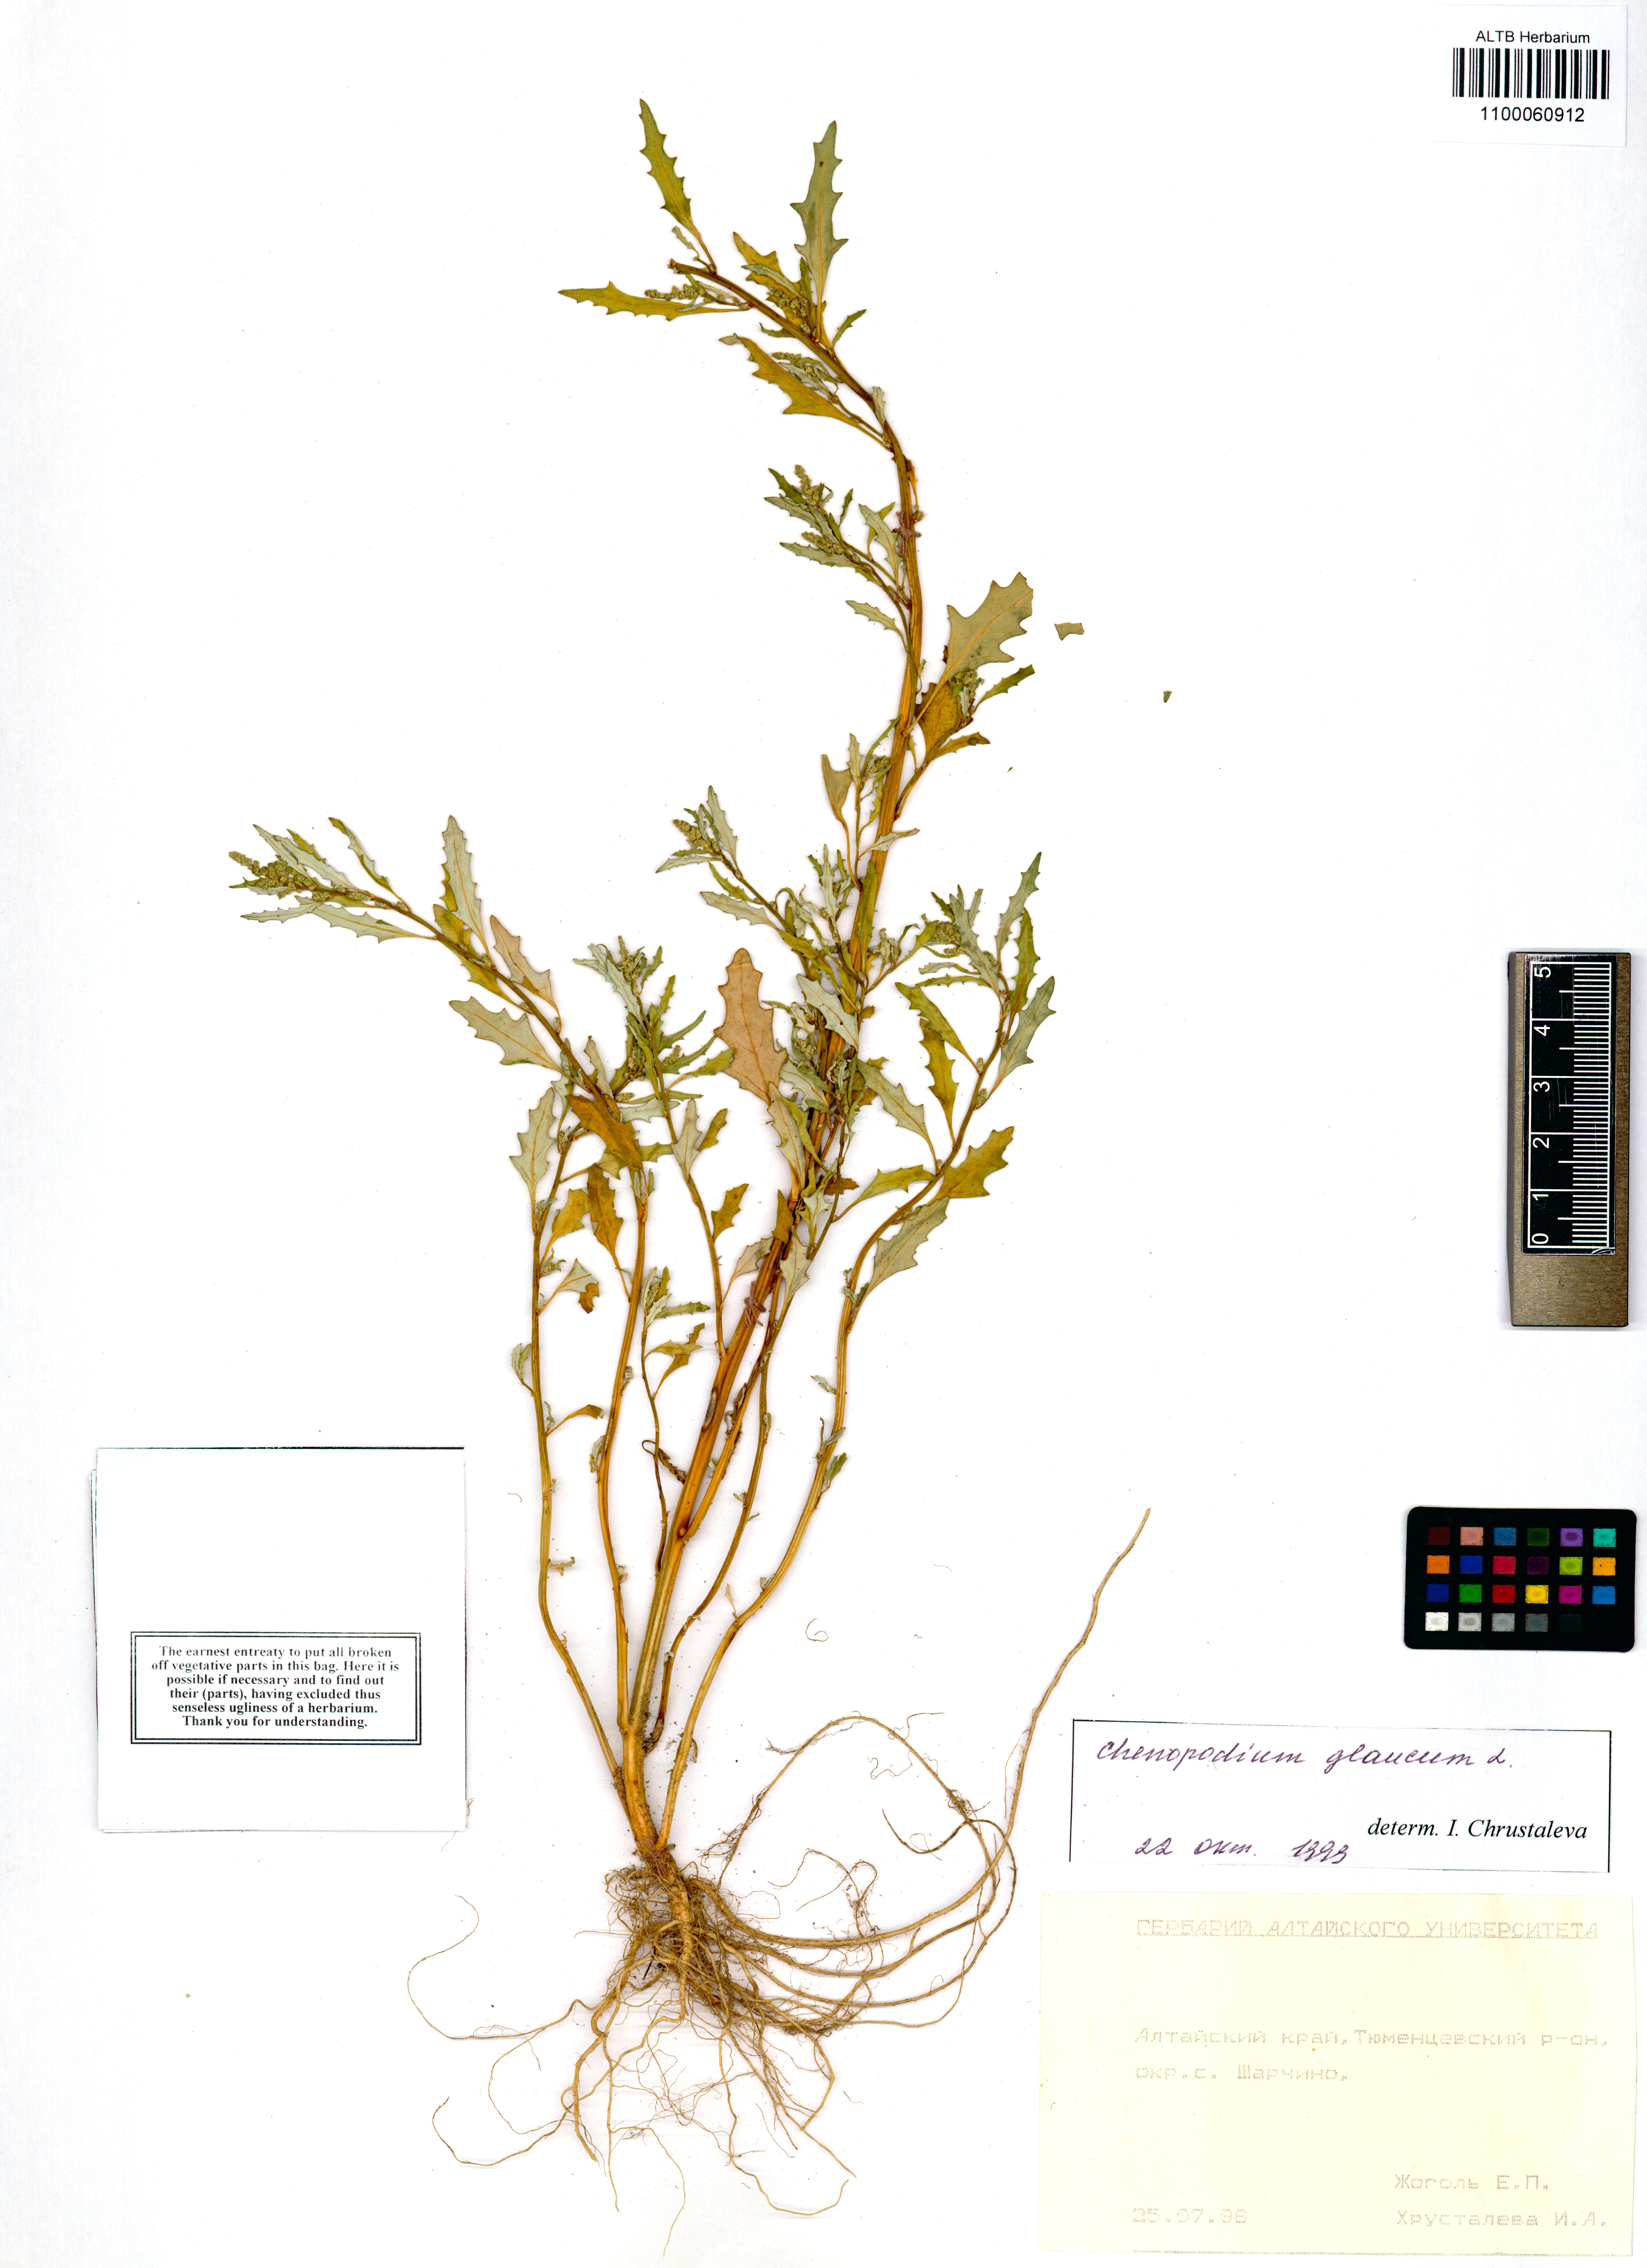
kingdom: Plantae
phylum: Tracheophyta
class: Magnoliopsida
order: Caryophyllales
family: Amaranthaceae
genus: Oxybasis
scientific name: Oxybasis glauca
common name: Glaucous goosefoot
